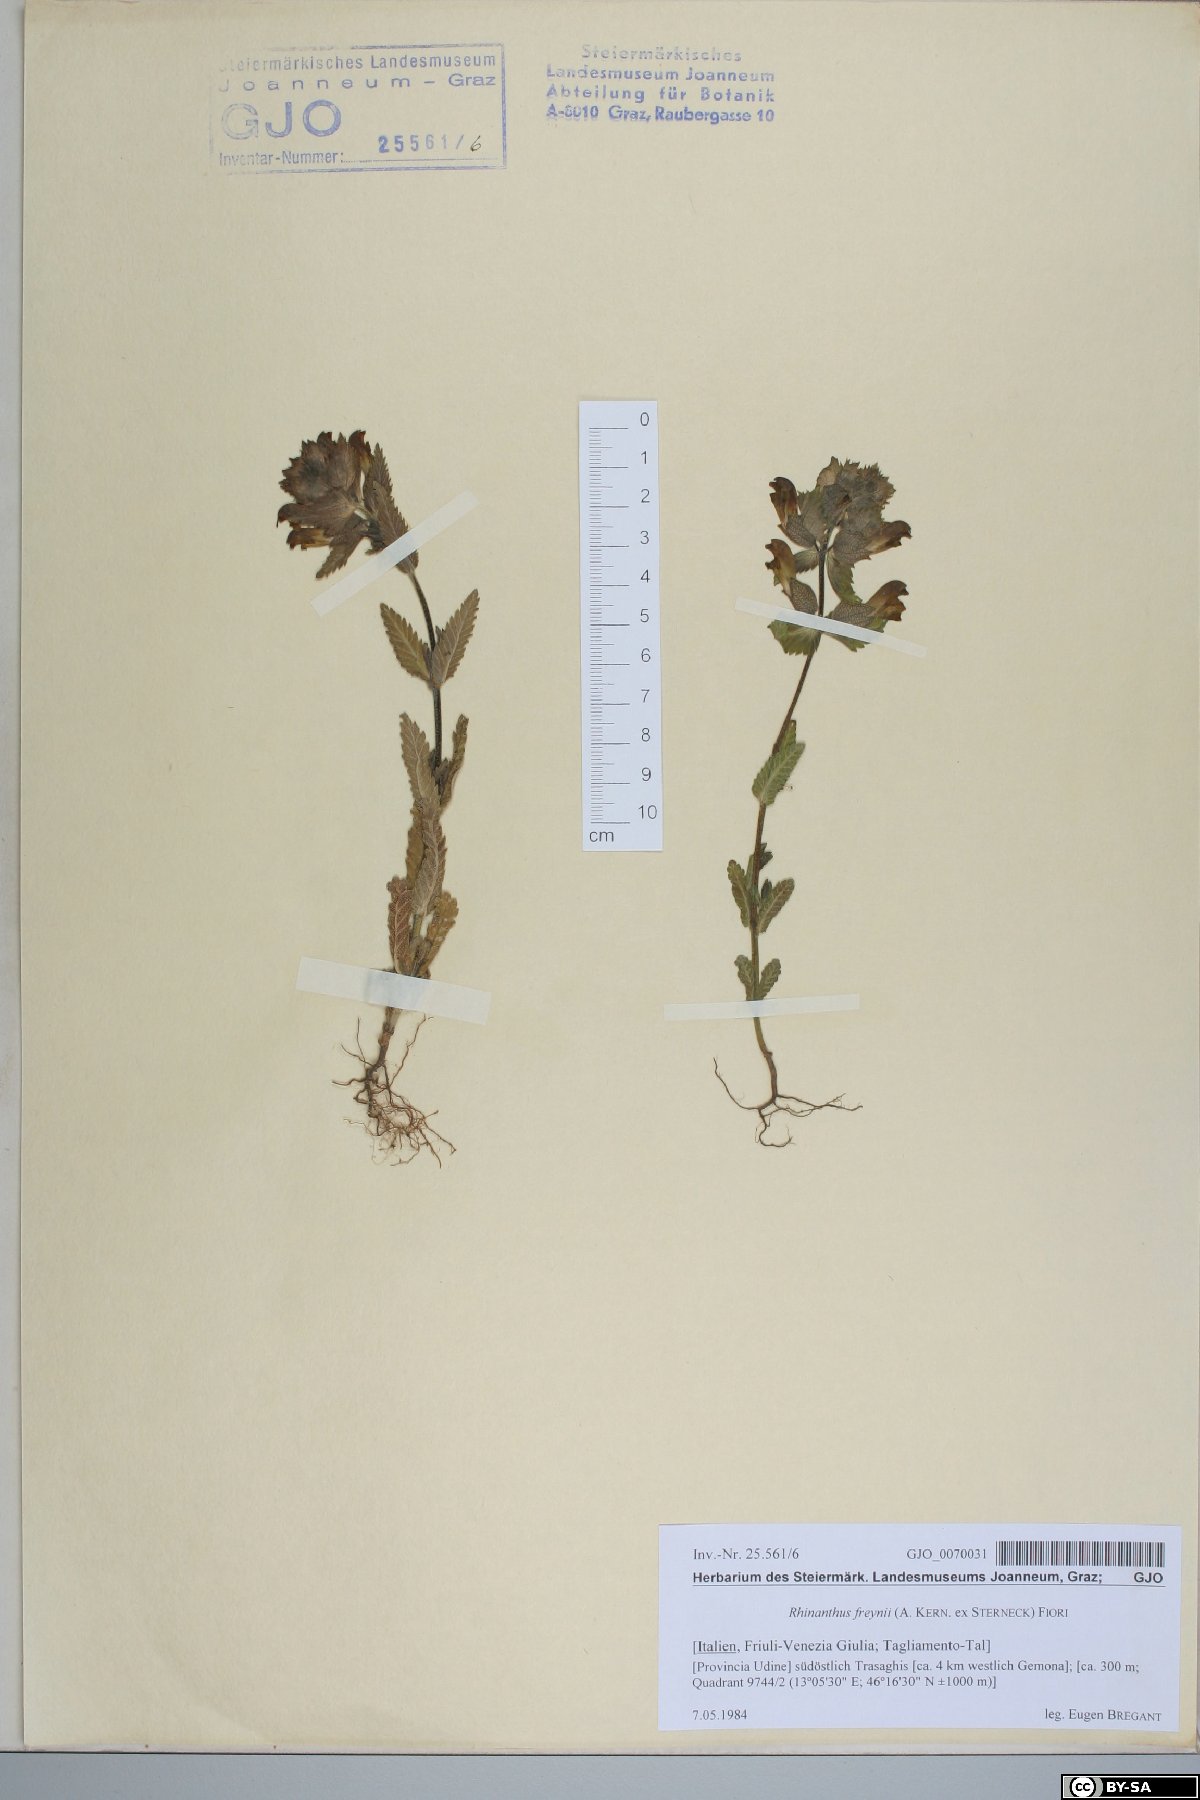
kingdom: Plantae
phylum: Tracheophyta
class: Magnoliopsida
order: Lamiales
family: Orobanchaceae
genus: Rhinanthus
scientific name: Rhinanthus freynii
